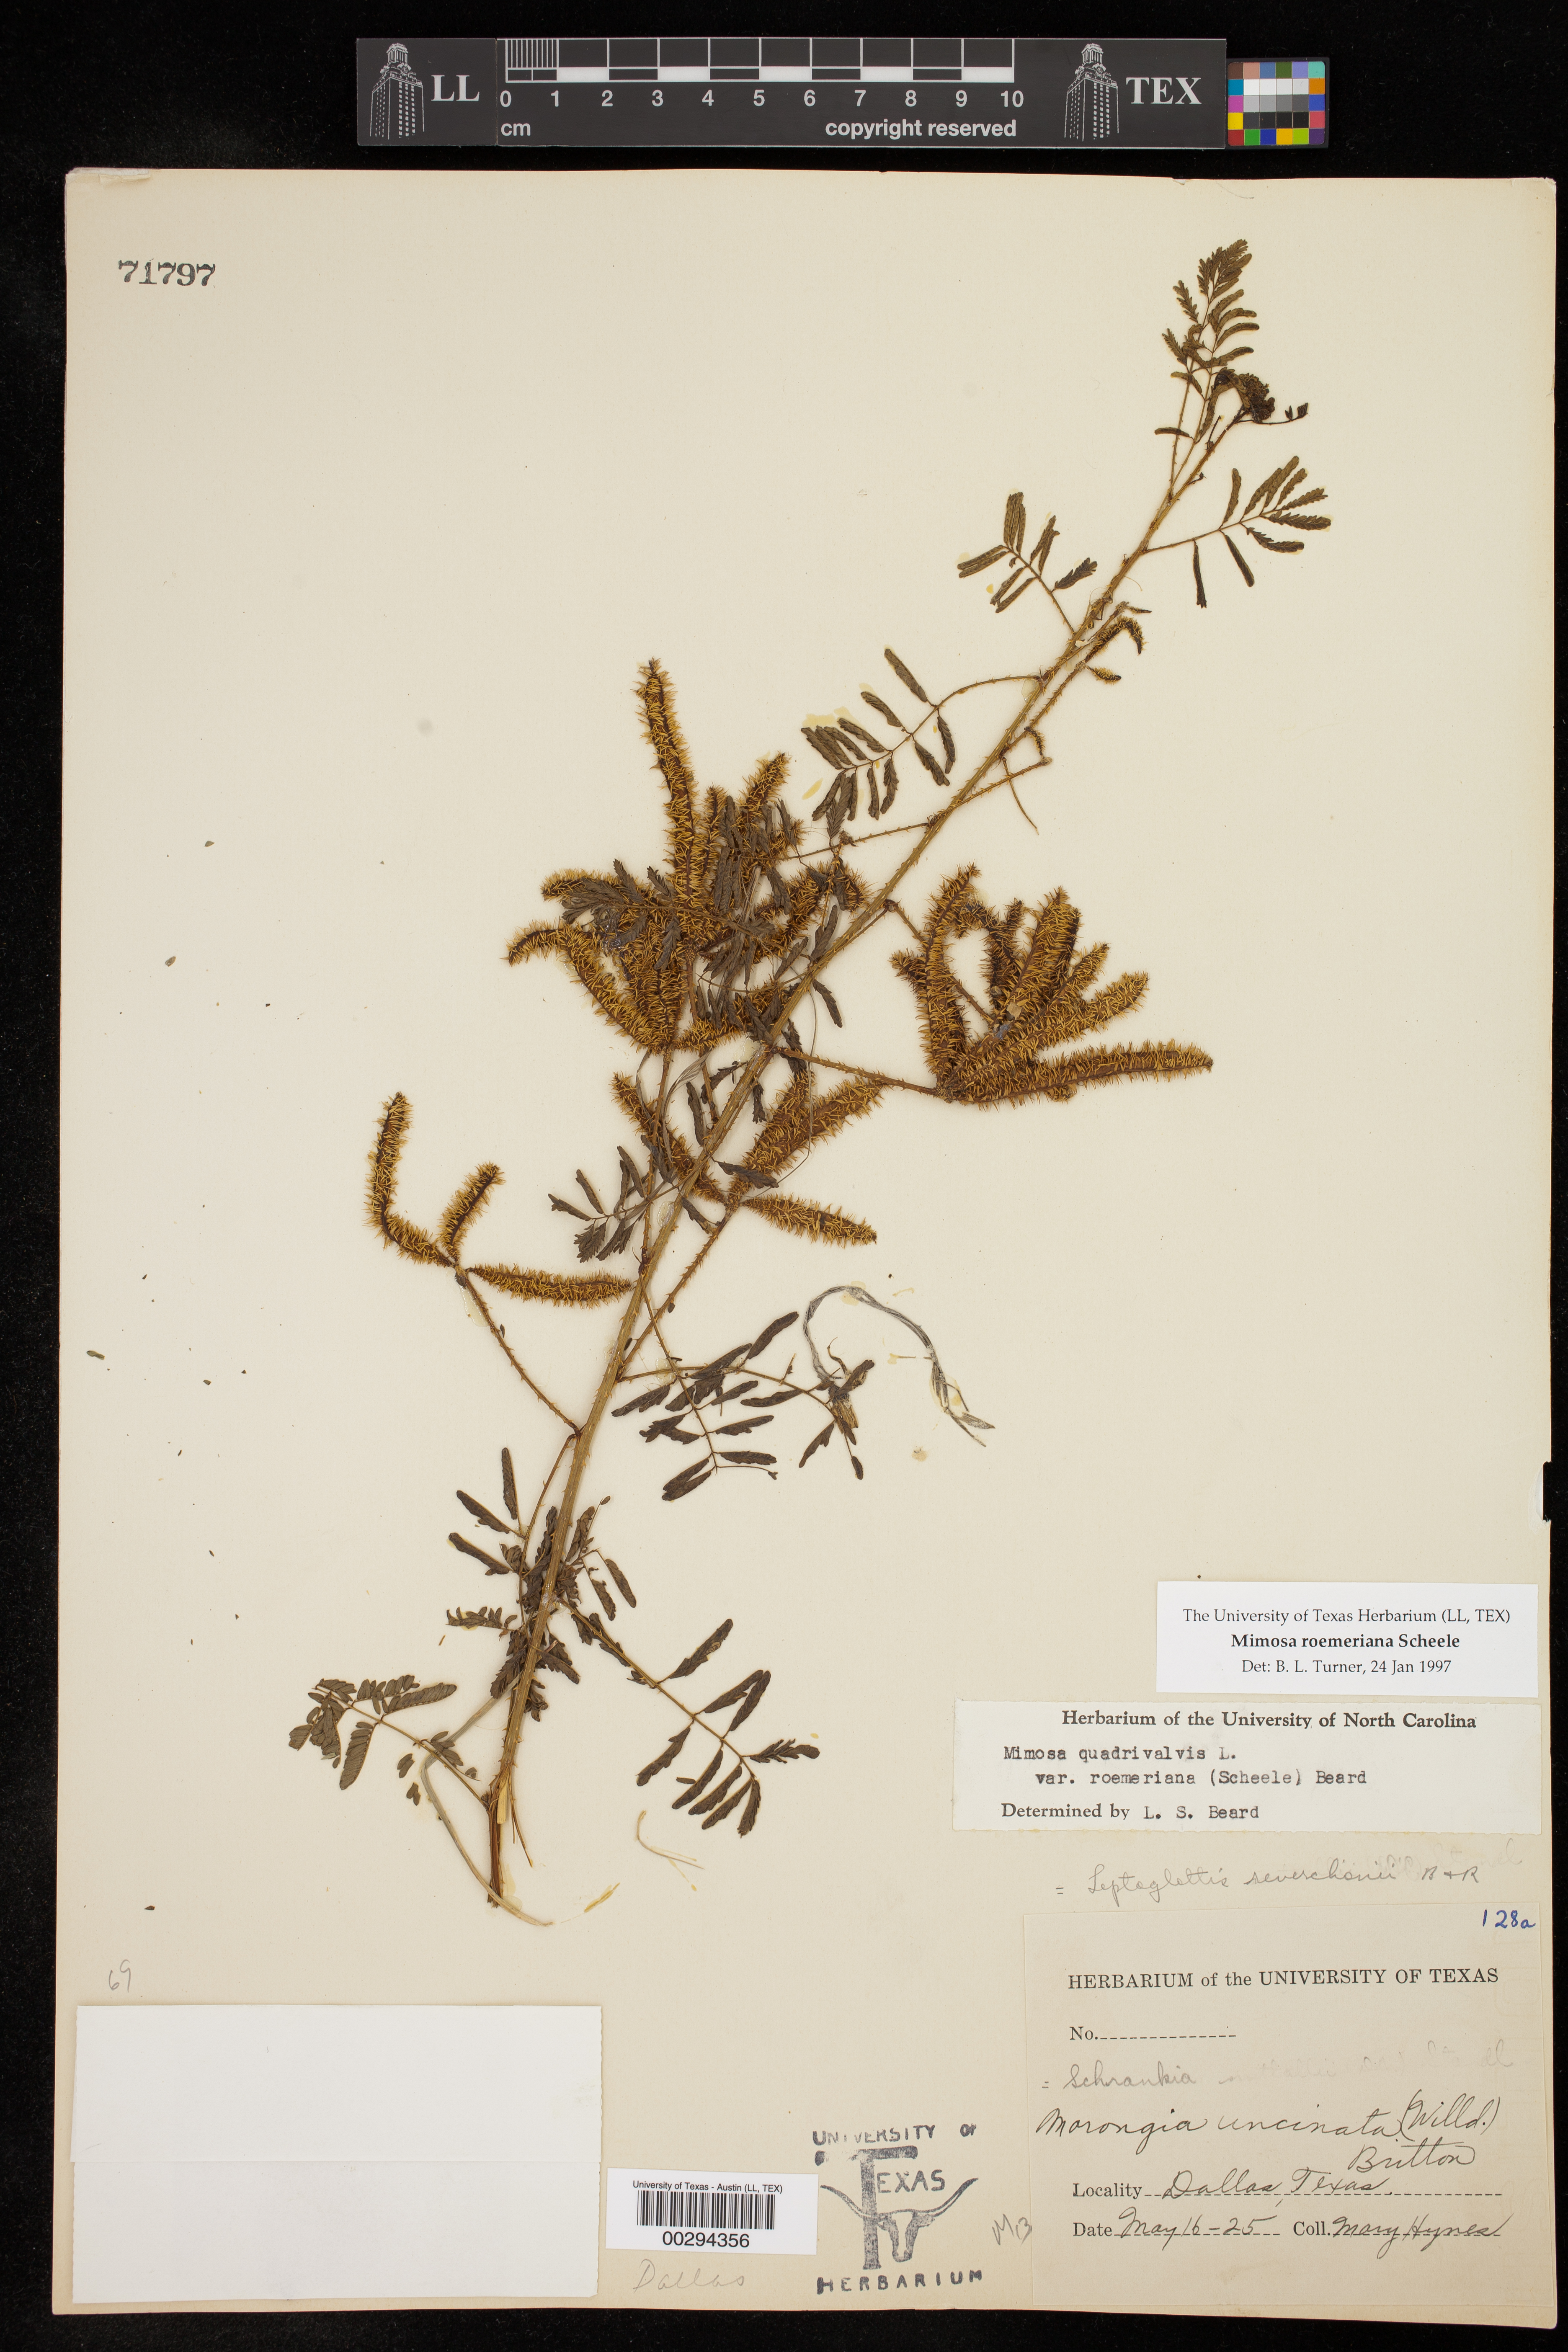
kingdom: Plantae
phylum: Tracheophyta
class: Magnoliopsida
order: Fabales
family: Fabaceae
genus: Mimosa
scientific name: Mimosa quadrivalvis
